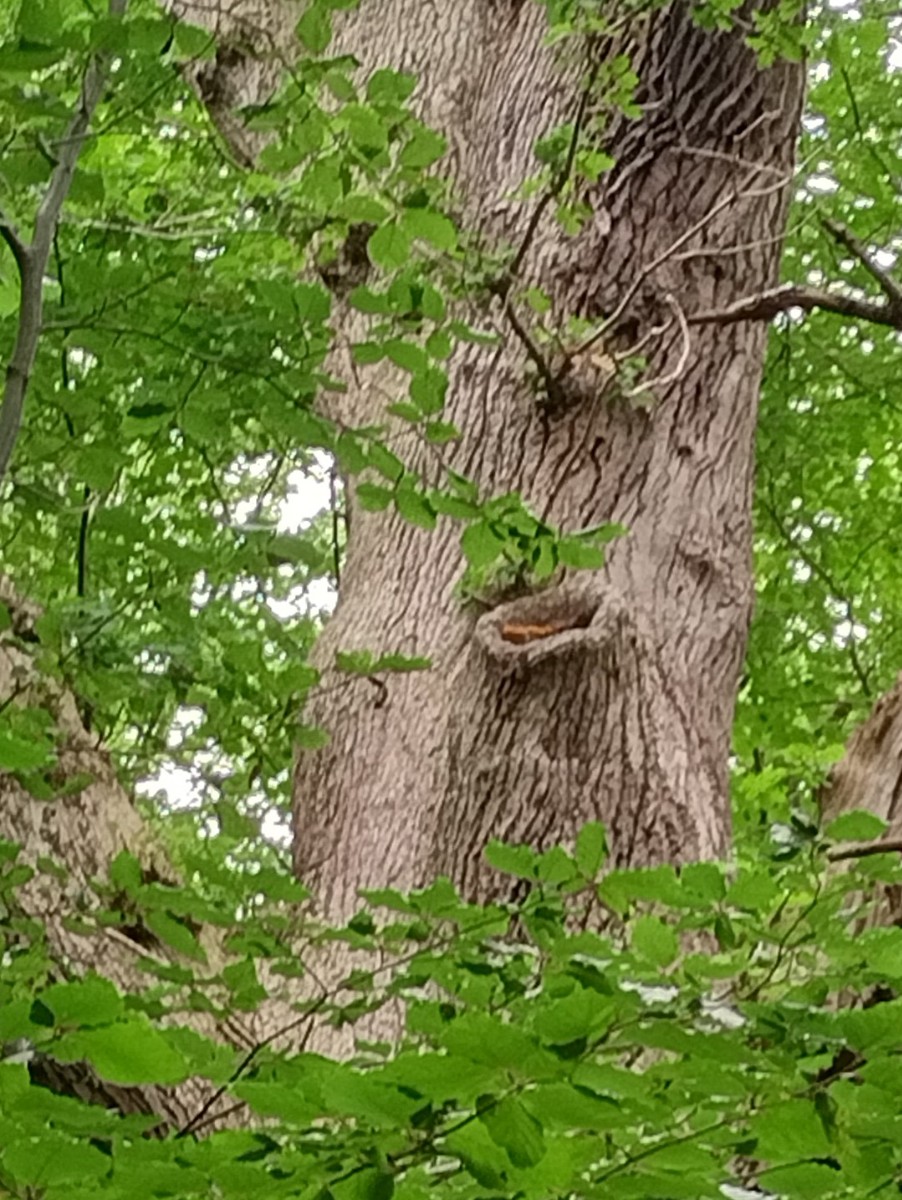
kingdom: Fungi
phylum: Basidiomycota
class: Agaricomycetes
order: Polyporales
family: Phanerochaetaceae
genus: Hapalopilus
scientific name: Hapalopilus croceus
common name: safrangul pragtporesvamp
